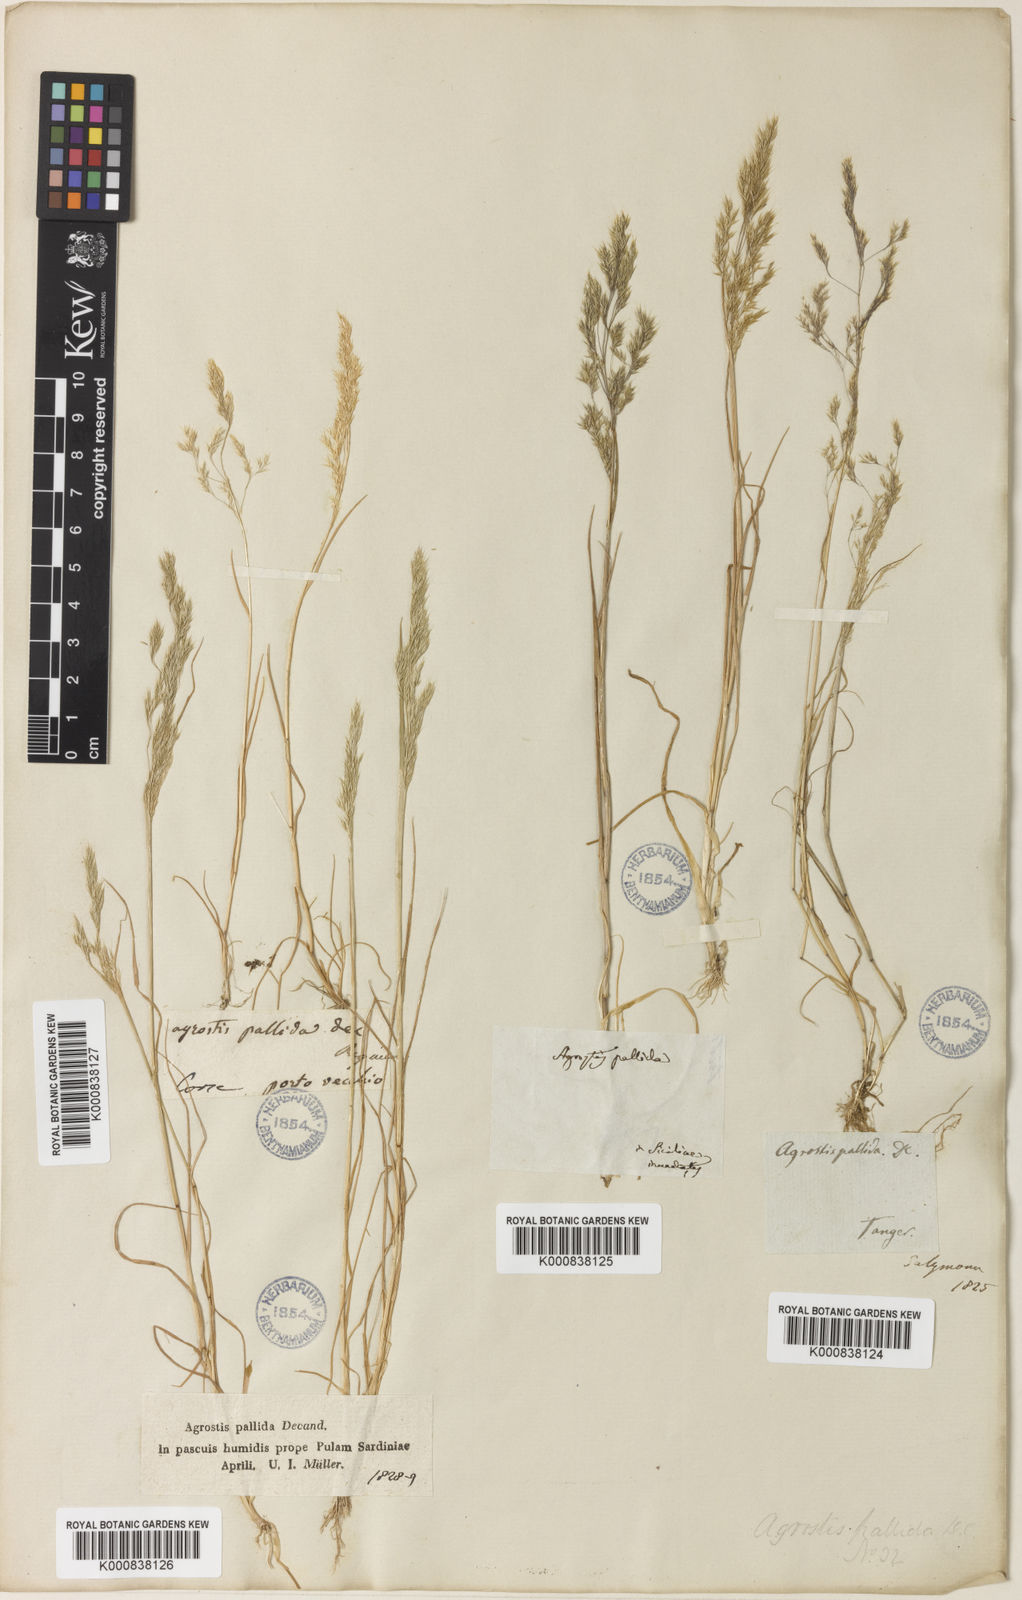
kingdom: Plantae
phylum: Tracheophyta
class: Liliopsida
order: Poales
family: Poaceae
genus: Agrostis
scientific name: Agrostis pourretii
